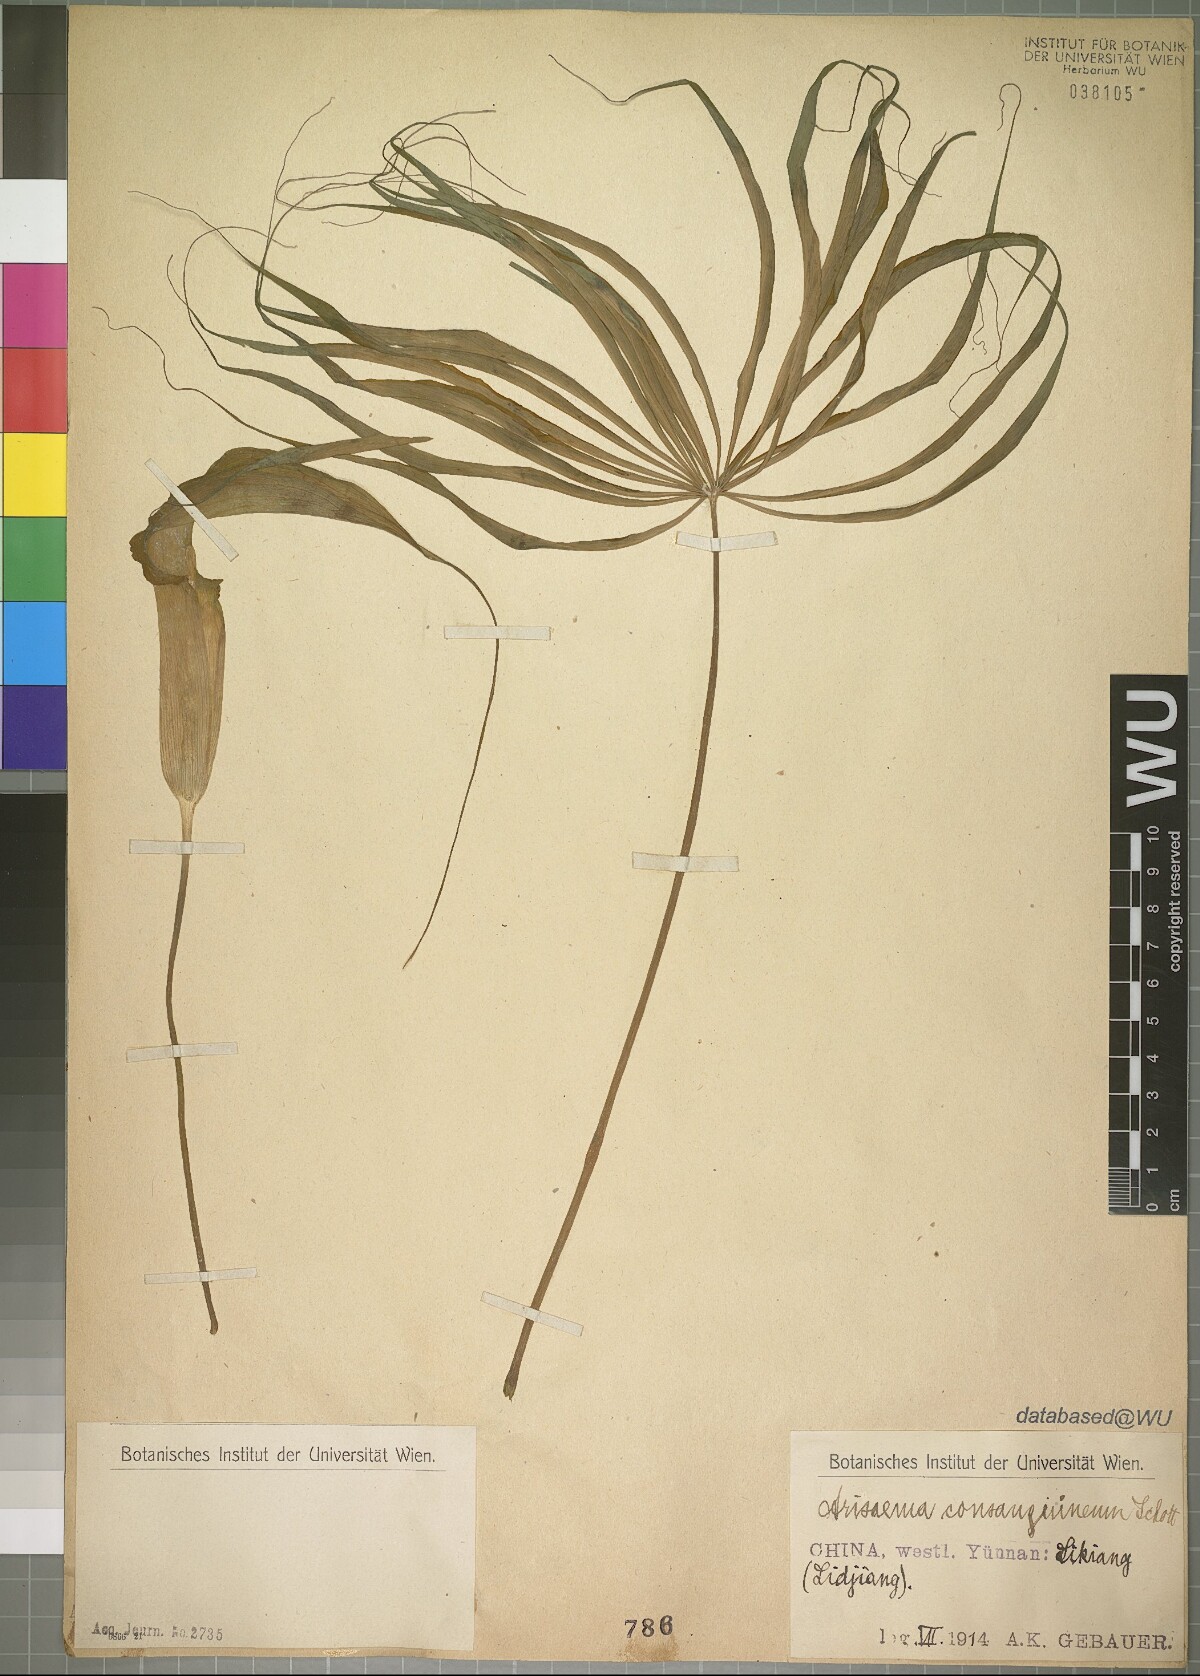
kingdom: Plantae
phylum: Tracheophyta
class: Liliopsida
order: Alismatales
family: Araceae
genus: Arisaema
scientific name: Arisaema consanguineum
